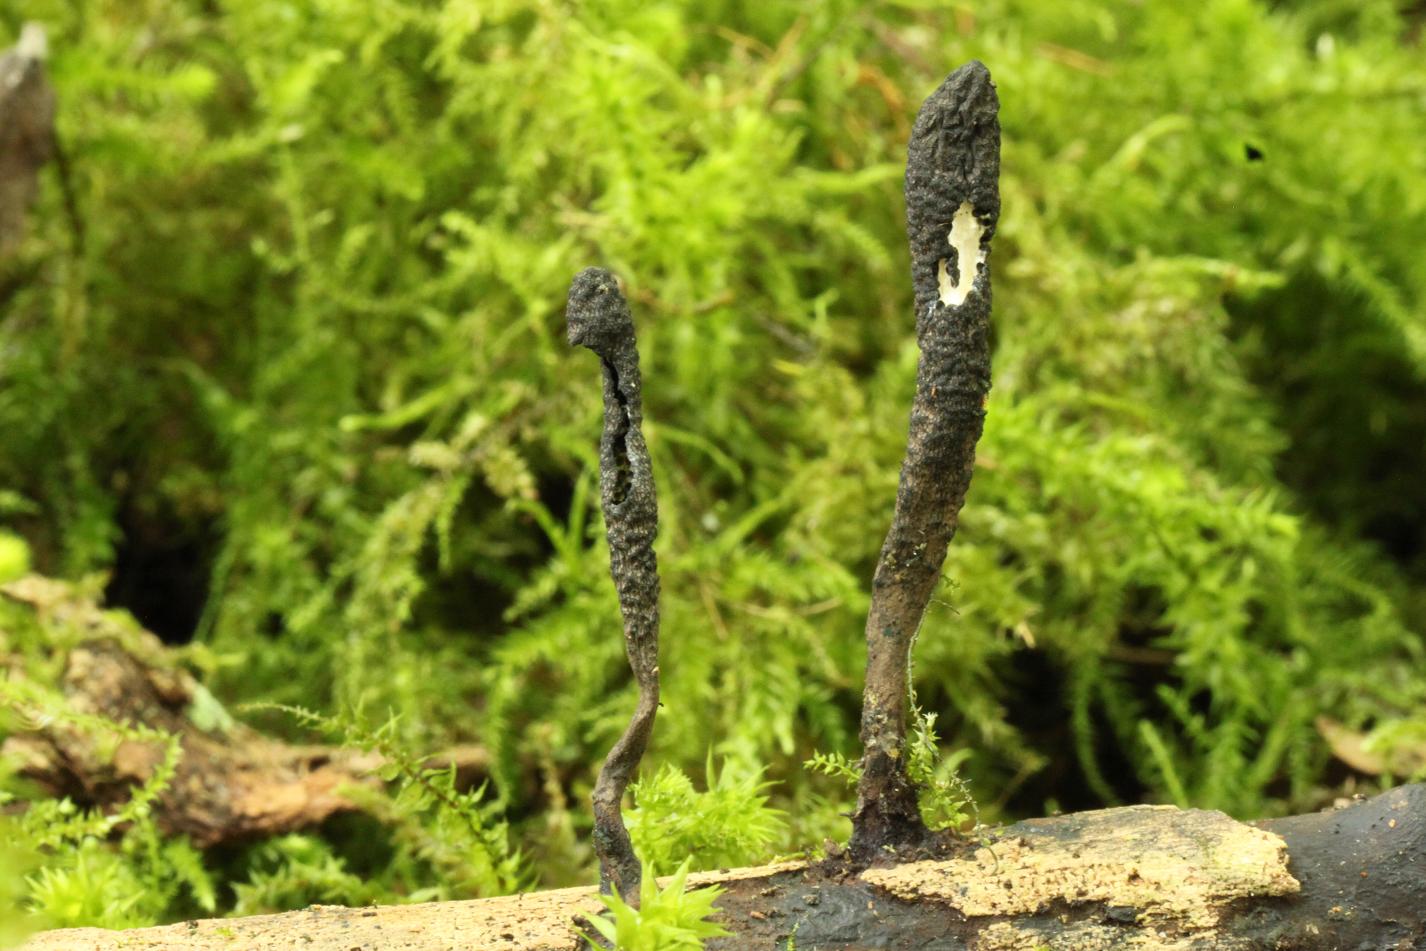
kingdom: Fungi
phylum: Ascomycota
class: Sordariomycetes
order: Xylariales
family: Xylariaceae
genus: Xylaria
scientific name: Xylaria longipes
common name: slank stødsvamp
